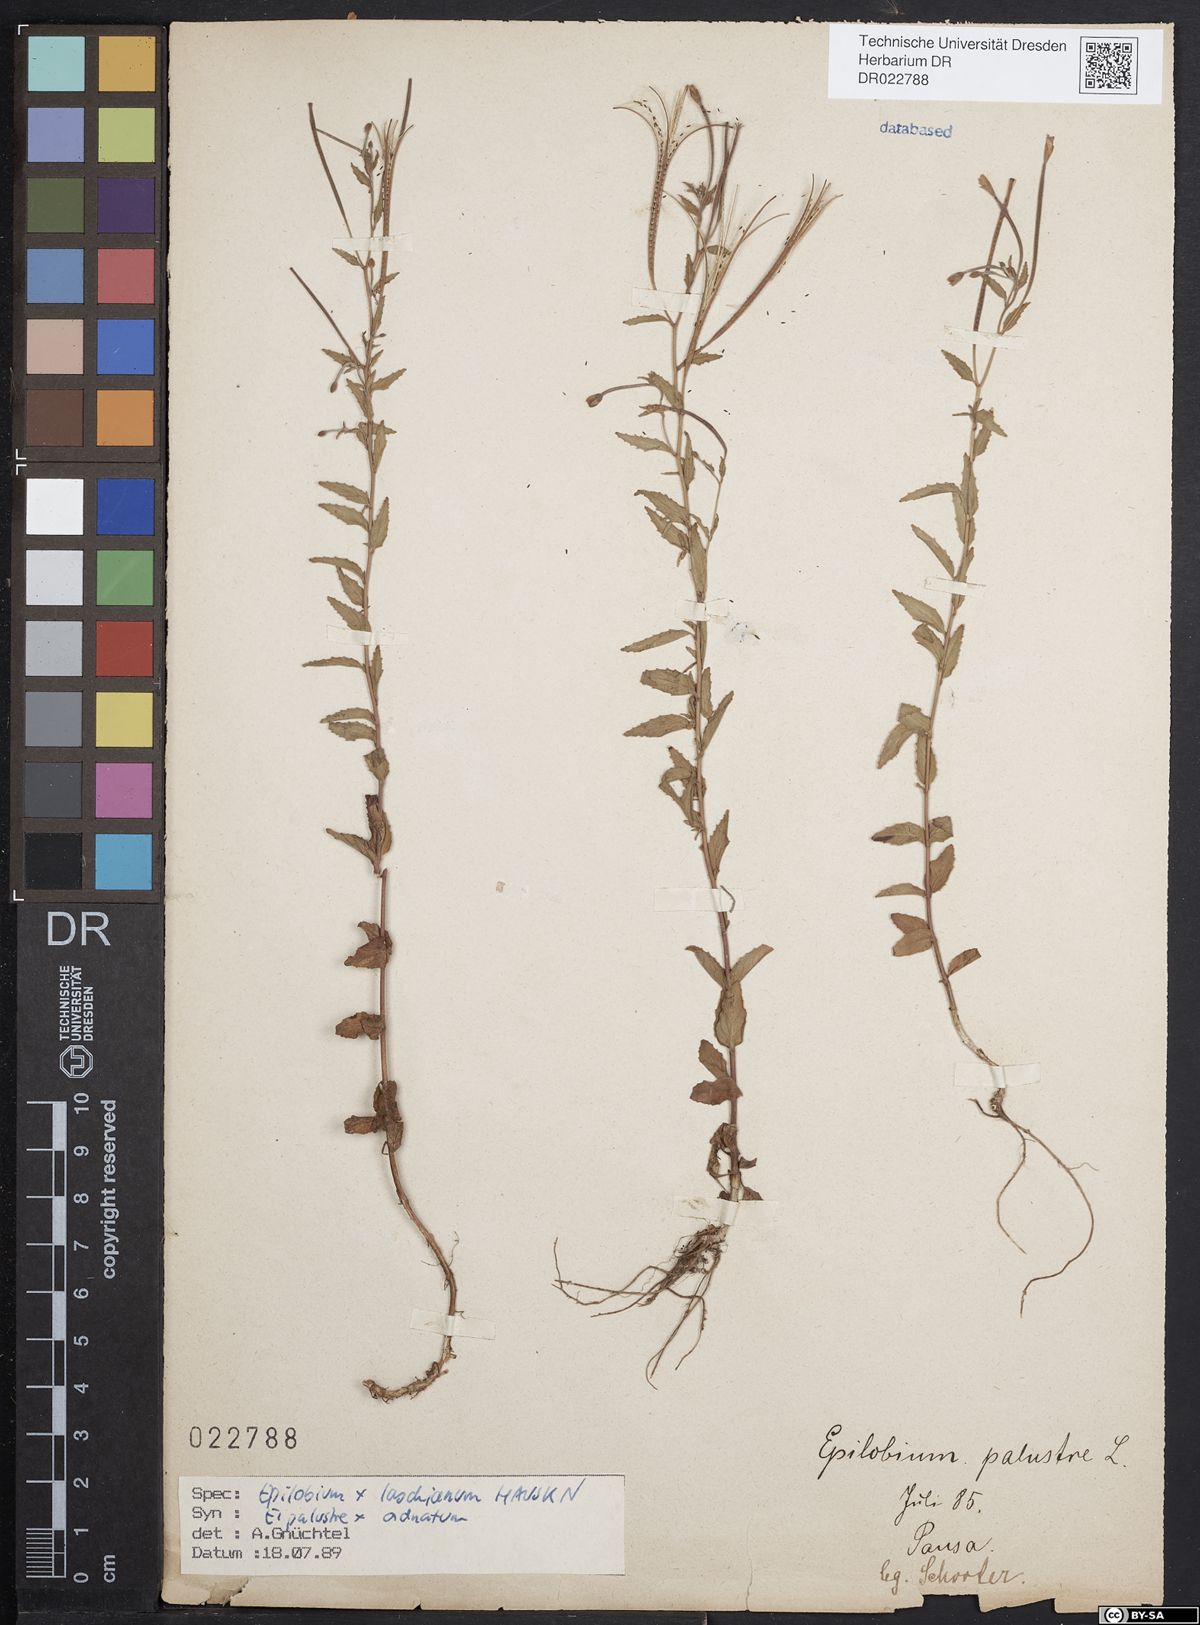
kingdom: Plantae
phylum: Tracheophyta
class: Magnoliopsida
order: Myrtales
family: Onagraceae
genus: Epilobium
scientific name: Epilobium laschianum
